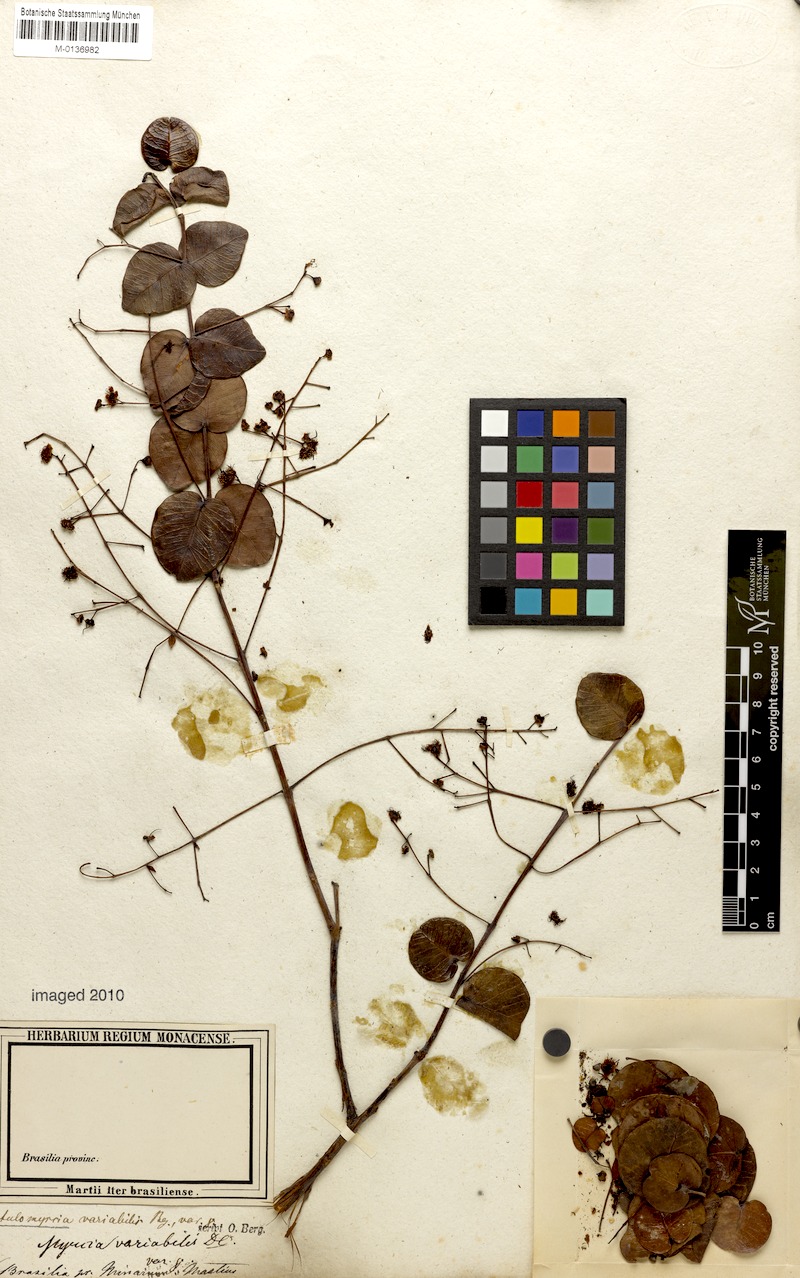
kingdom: Plantae
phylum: Tracheophyta
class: Magnoliopsida
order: Myrtales
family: Myrtaceae
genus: Myrcia
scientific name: Myrcia variabilis
